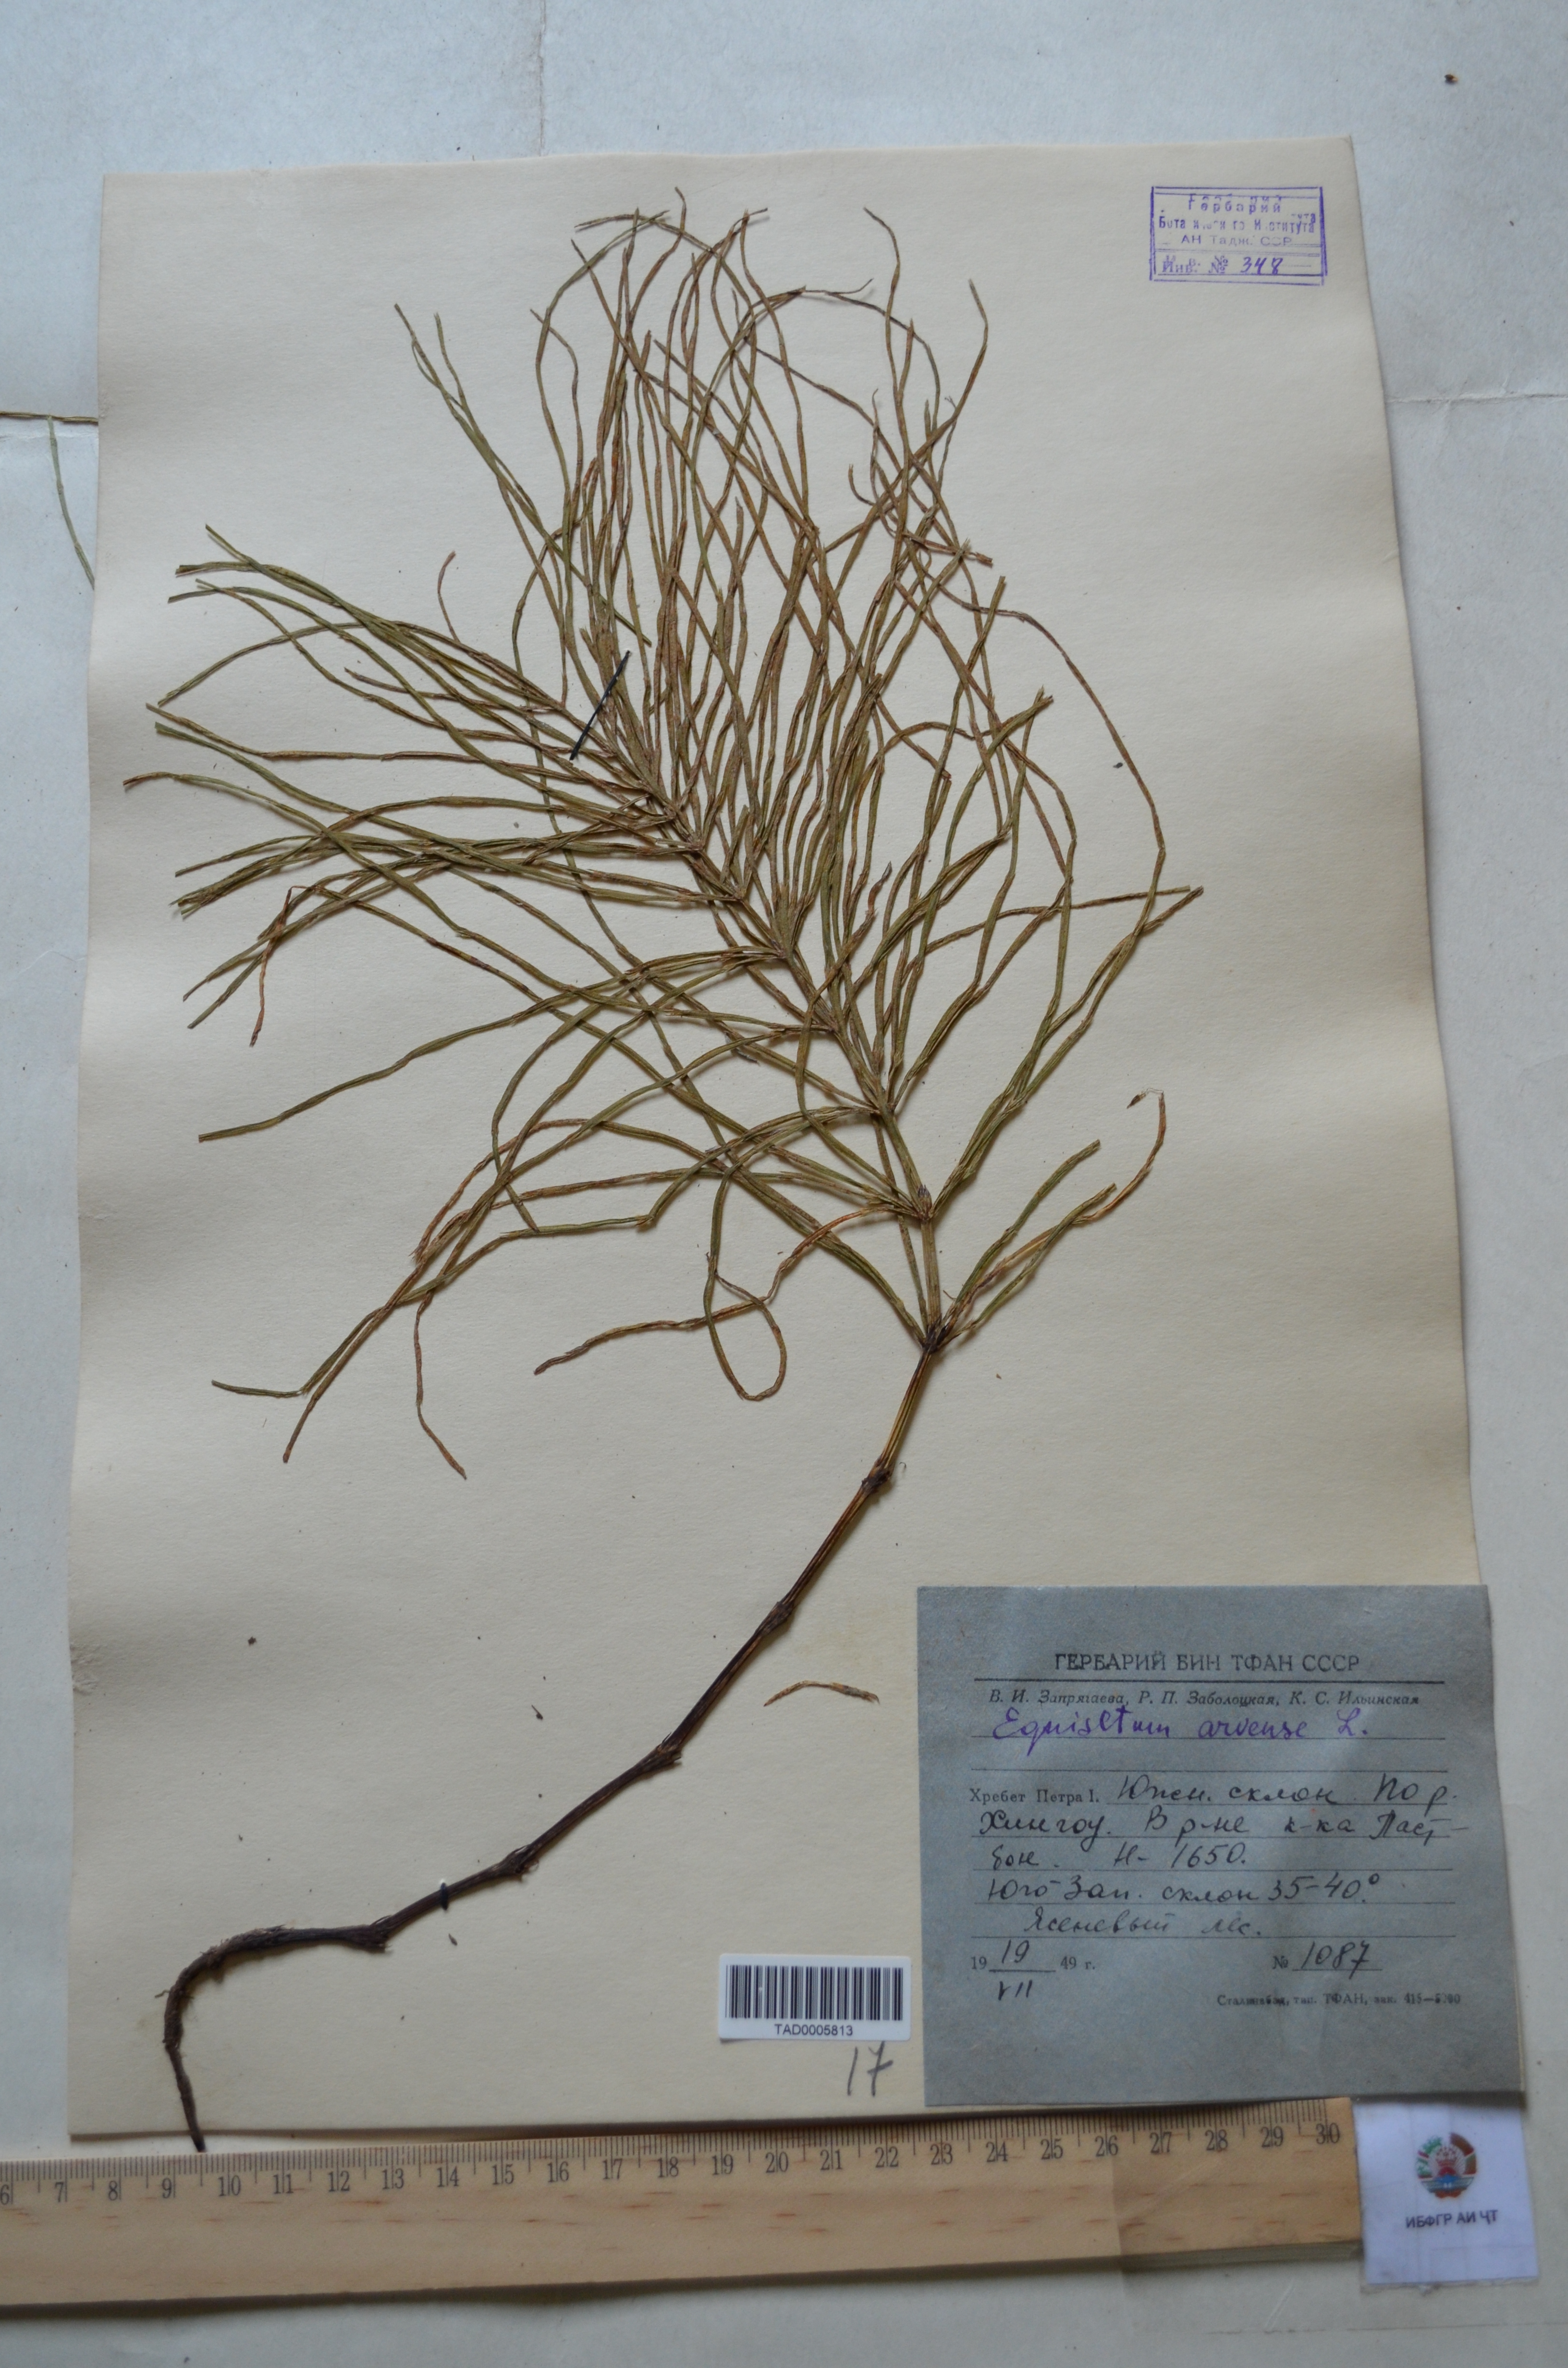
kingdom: Plantae
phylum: Tracheophyta
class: Polypodiopsida
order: Equisetales
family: Equisetaceae
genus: Equisetum
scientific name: Equisetum arvense
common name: Field horsetail
